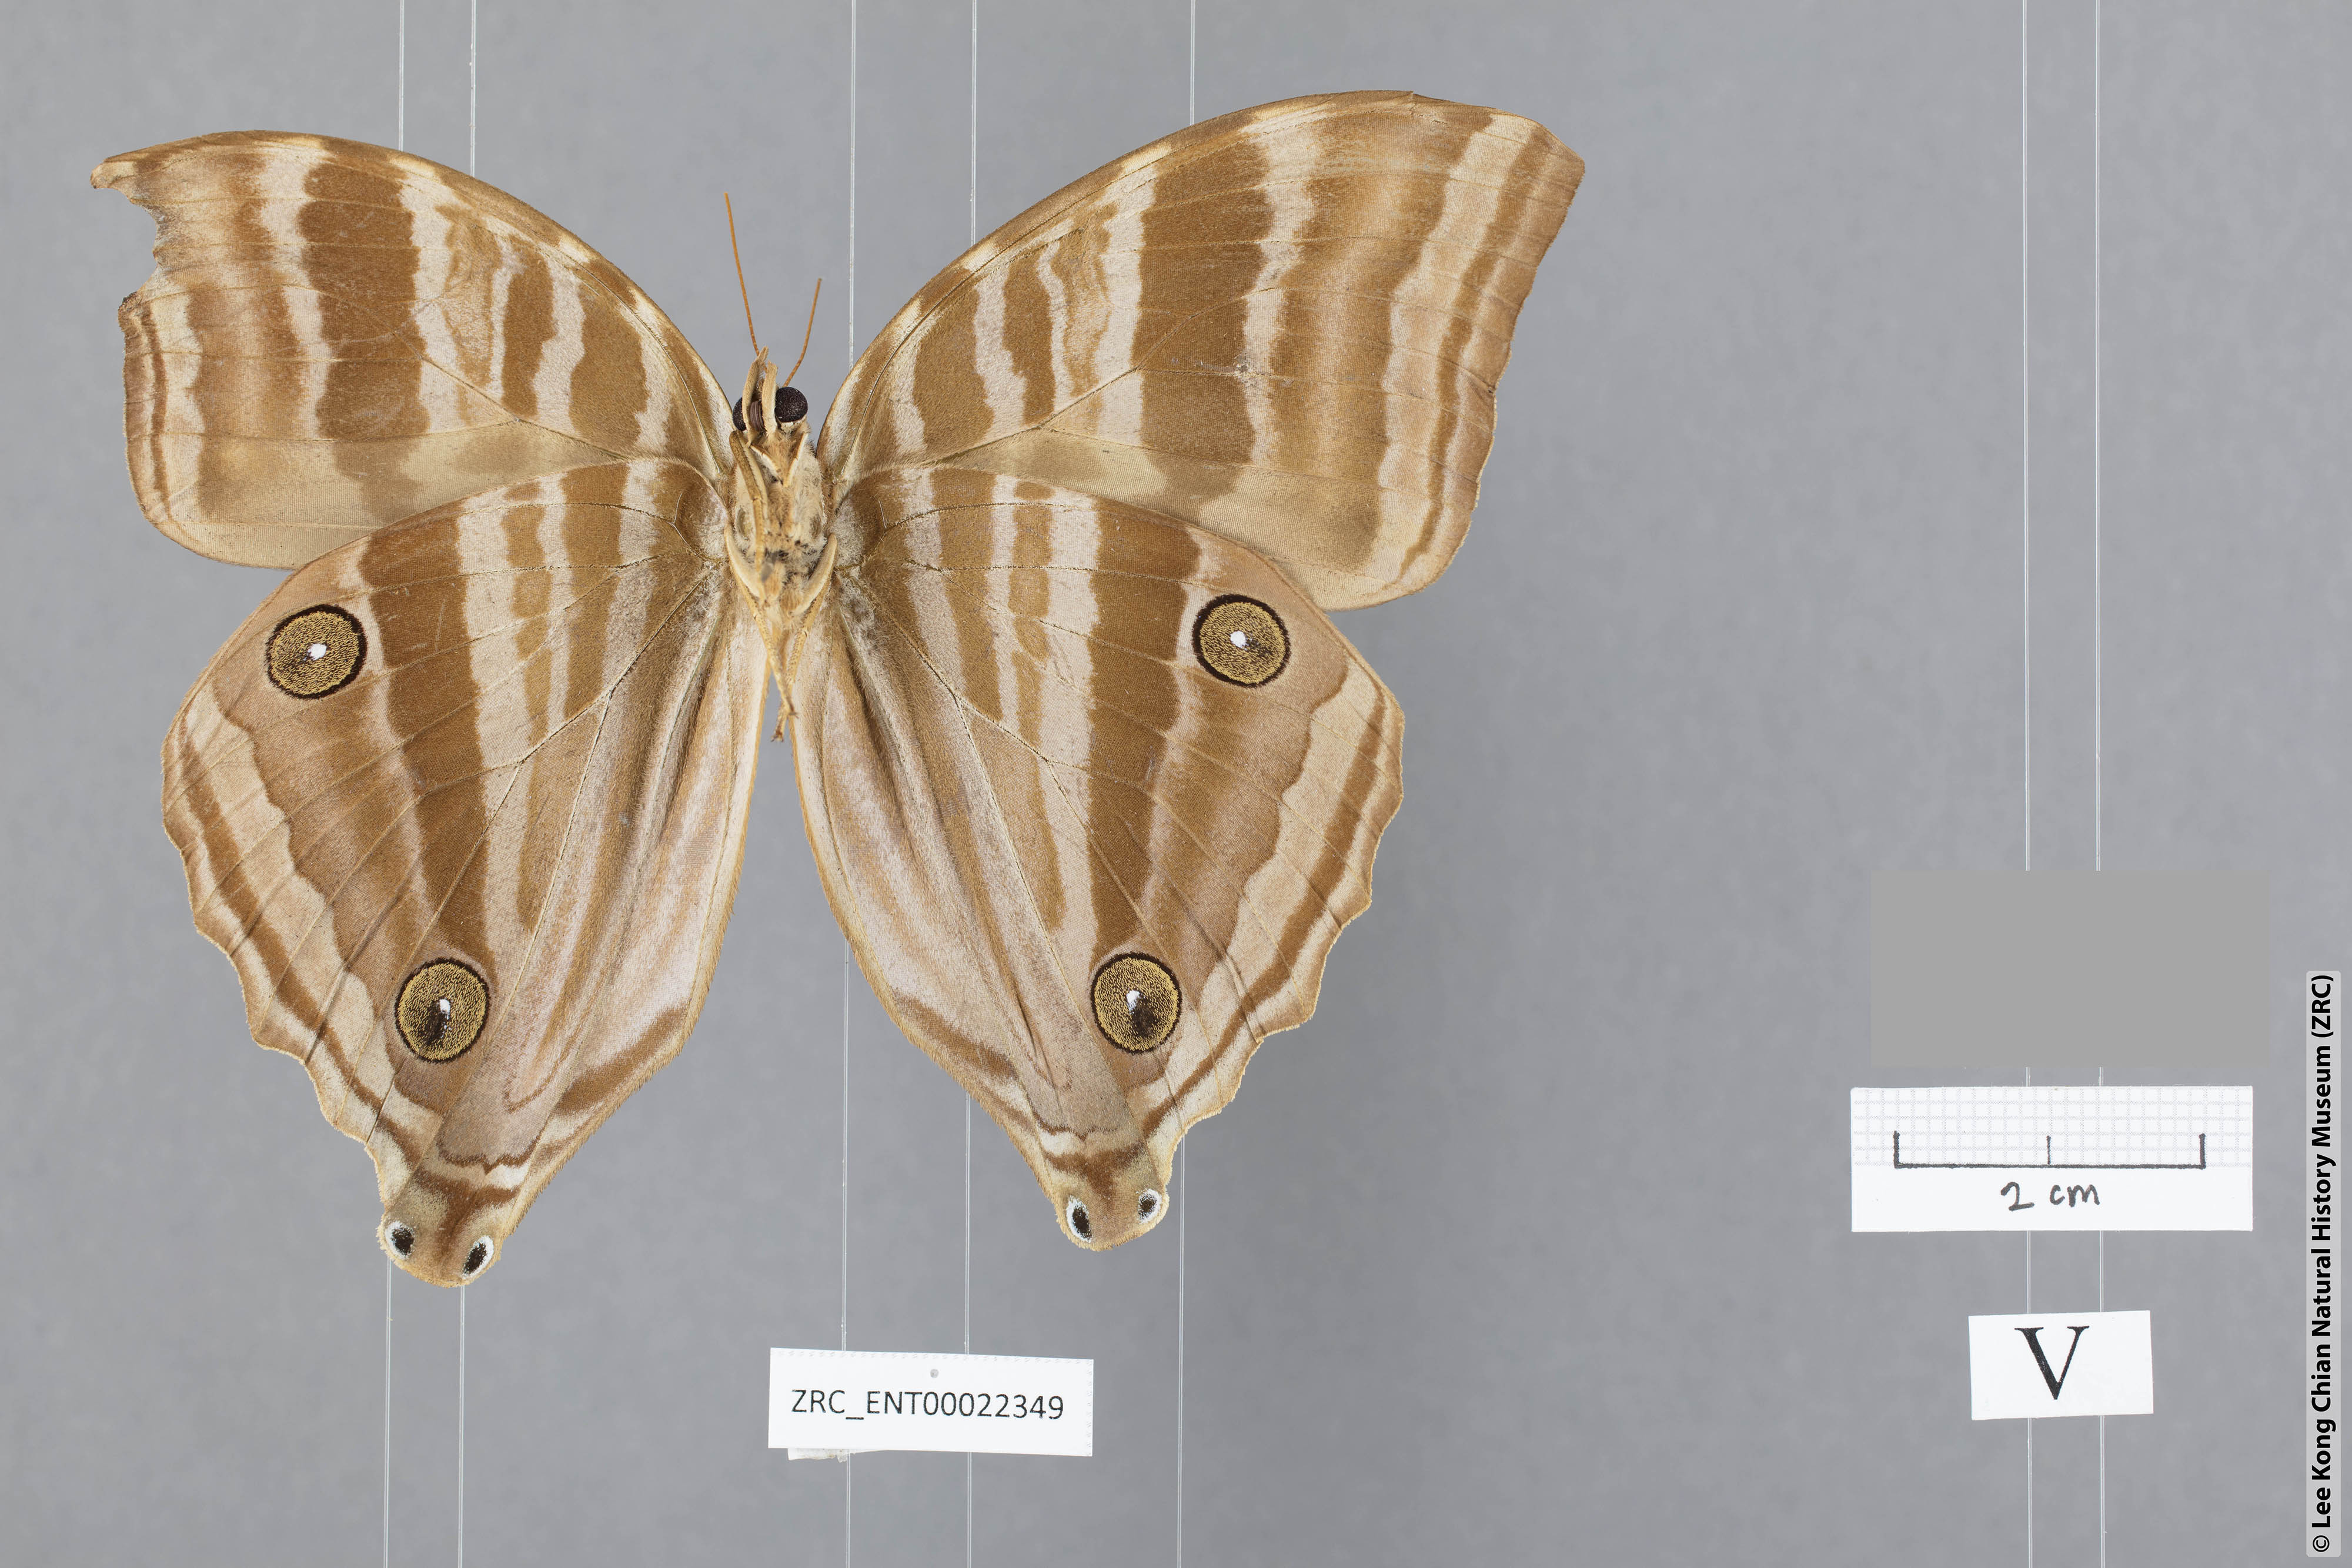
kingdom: Animalia
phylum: Arthropoda
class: Insecta
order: Lepidoptera
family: Nymphalidae
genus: Amathusia
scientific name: Amathusia friderici
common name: Bicolor-haired palm king
